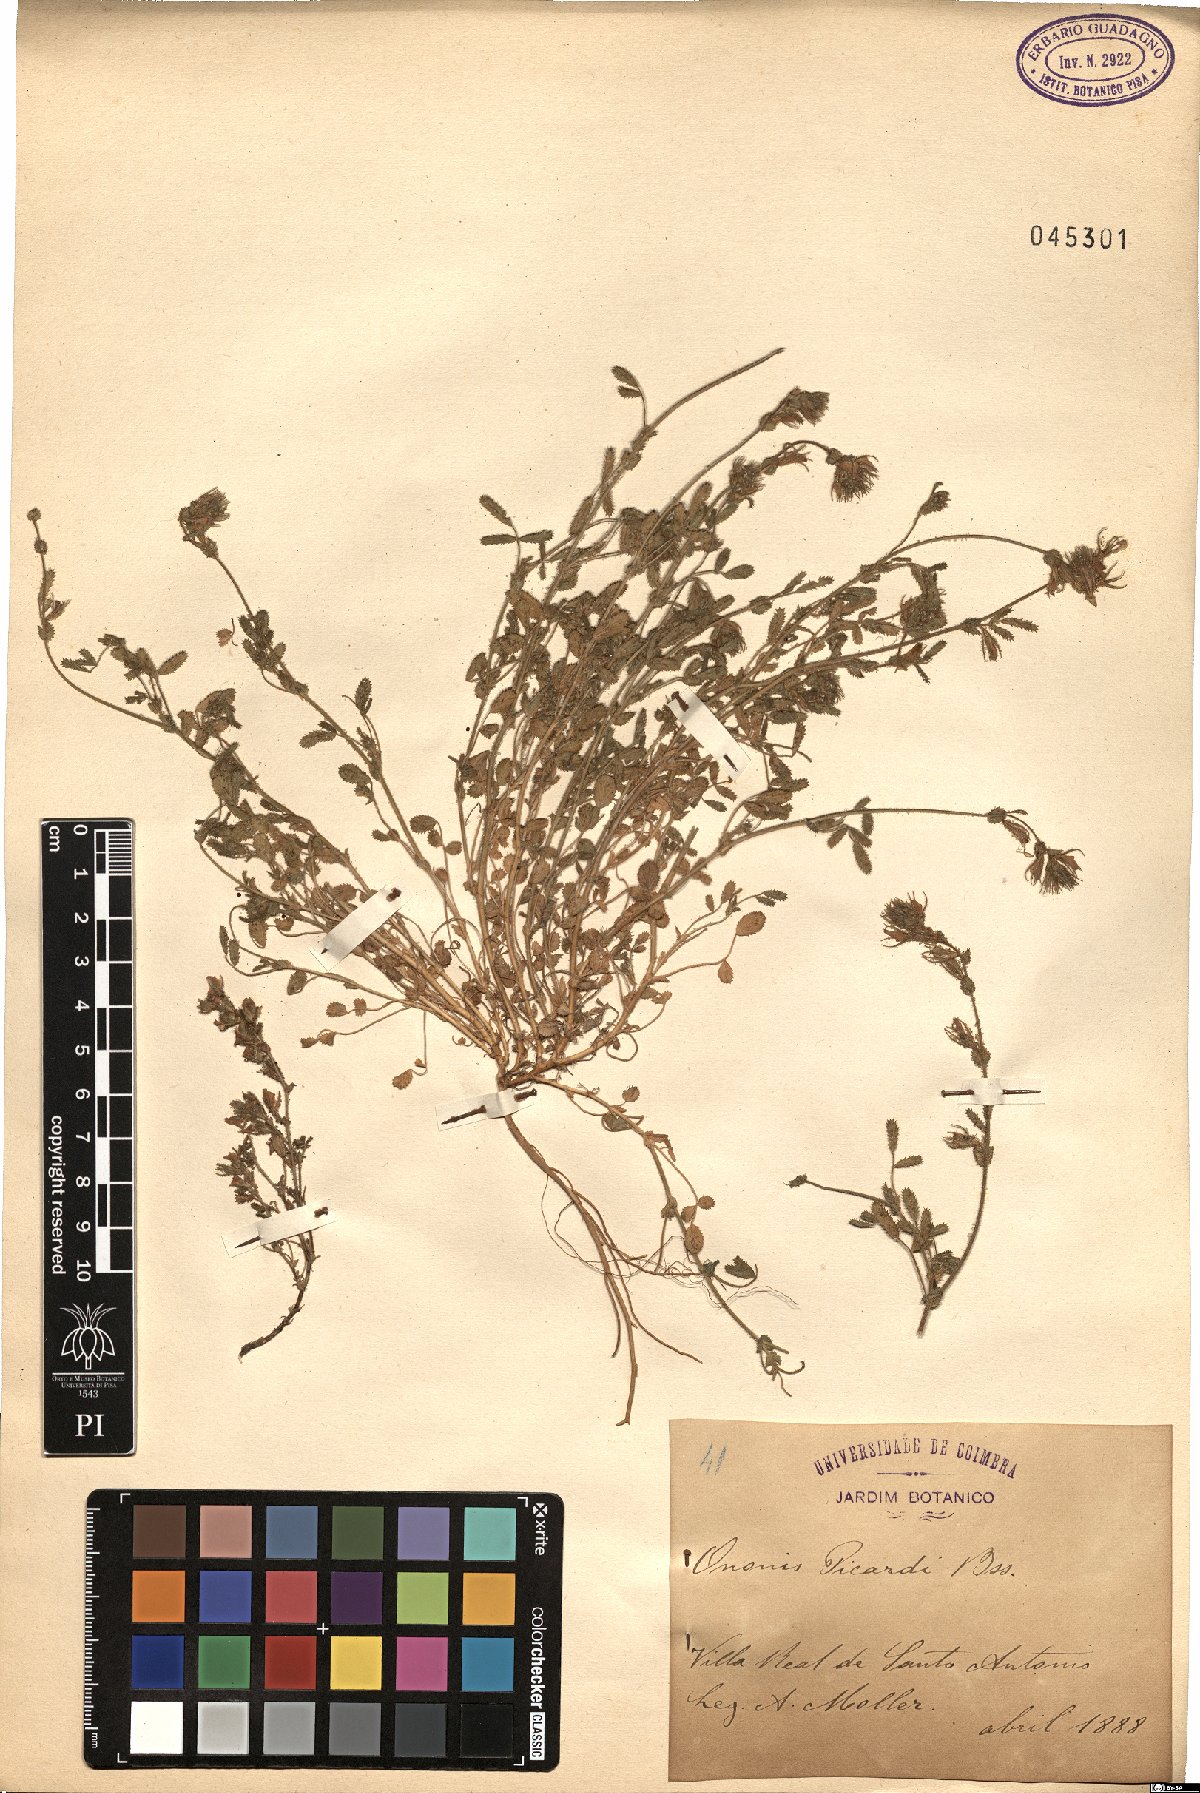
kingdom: Plantae
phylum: Tracheophyta
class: Magnoliopsida
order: Fabales
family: Fabaceae
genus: Ononis
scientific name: Ononis baetica
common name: Andalucian restharrow
